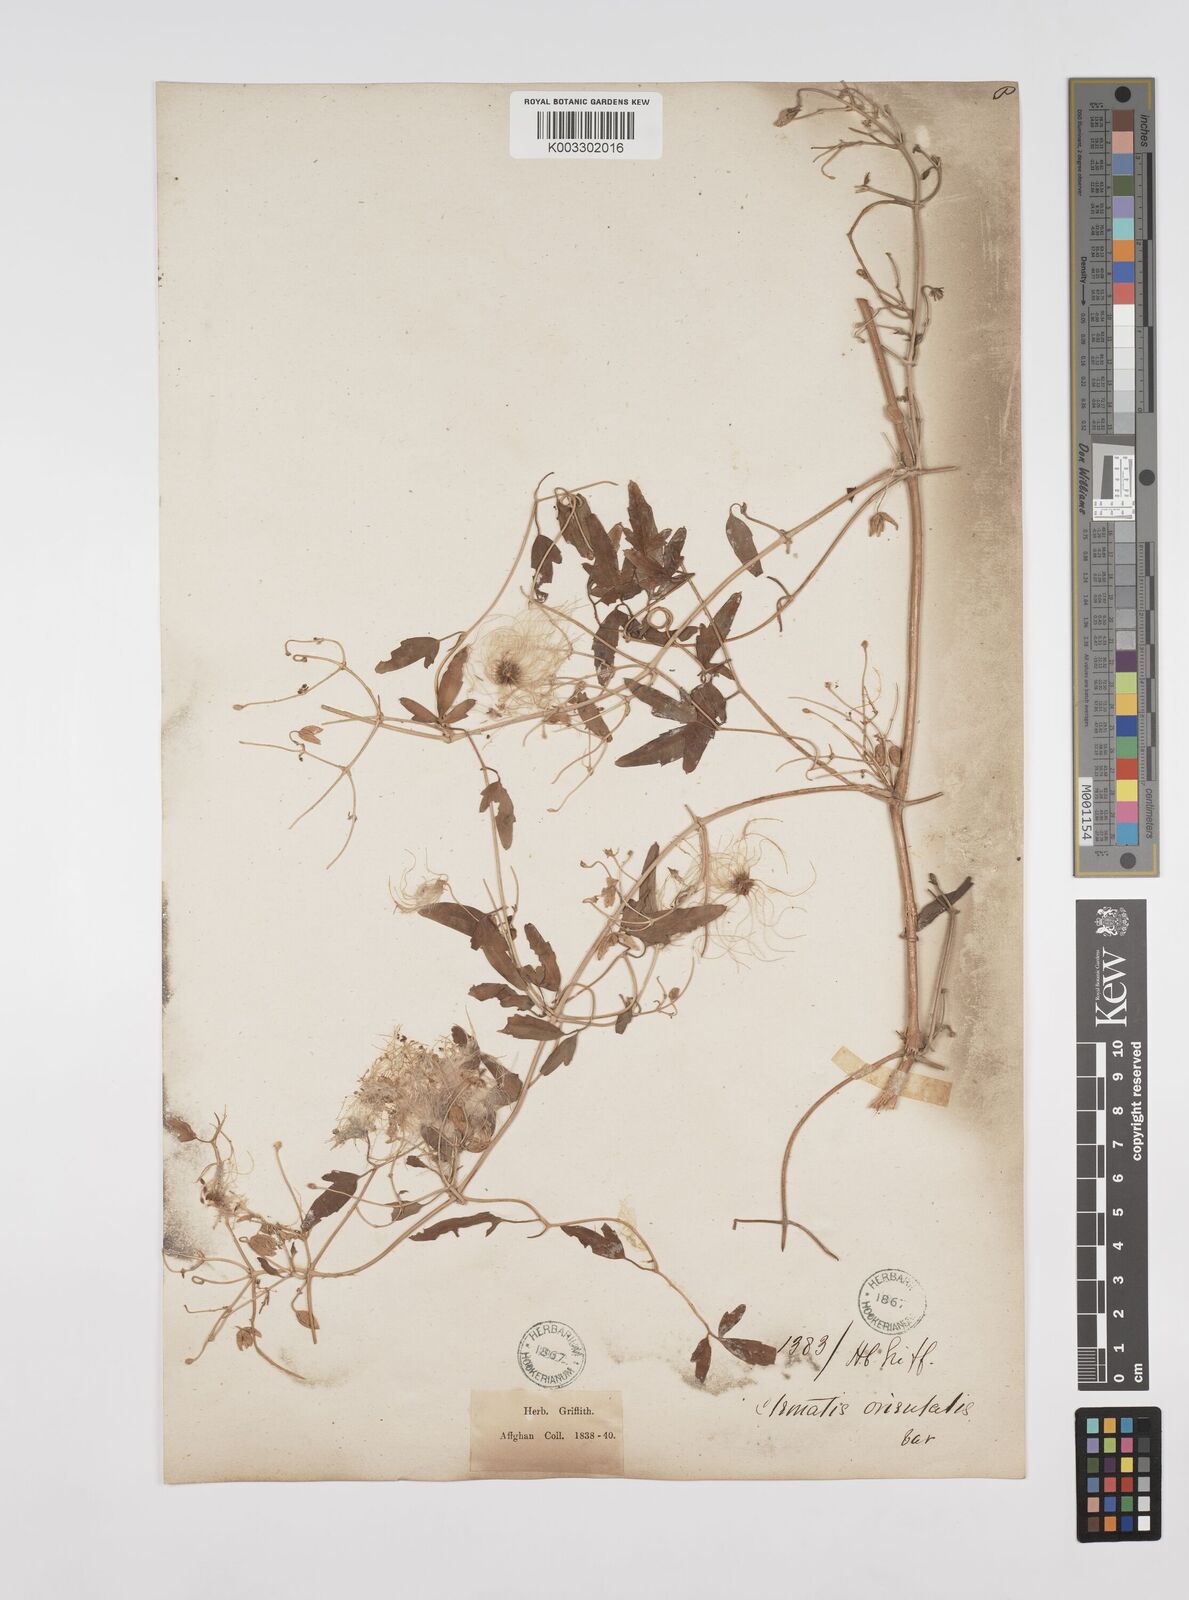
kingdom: Plantae
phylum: Tracheophyta
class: Magnoliopsida
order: Ranunculales
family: Ranunculaceae
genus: Clematis
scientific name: Clematis orientalis
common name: Oriental virgin's-bower
